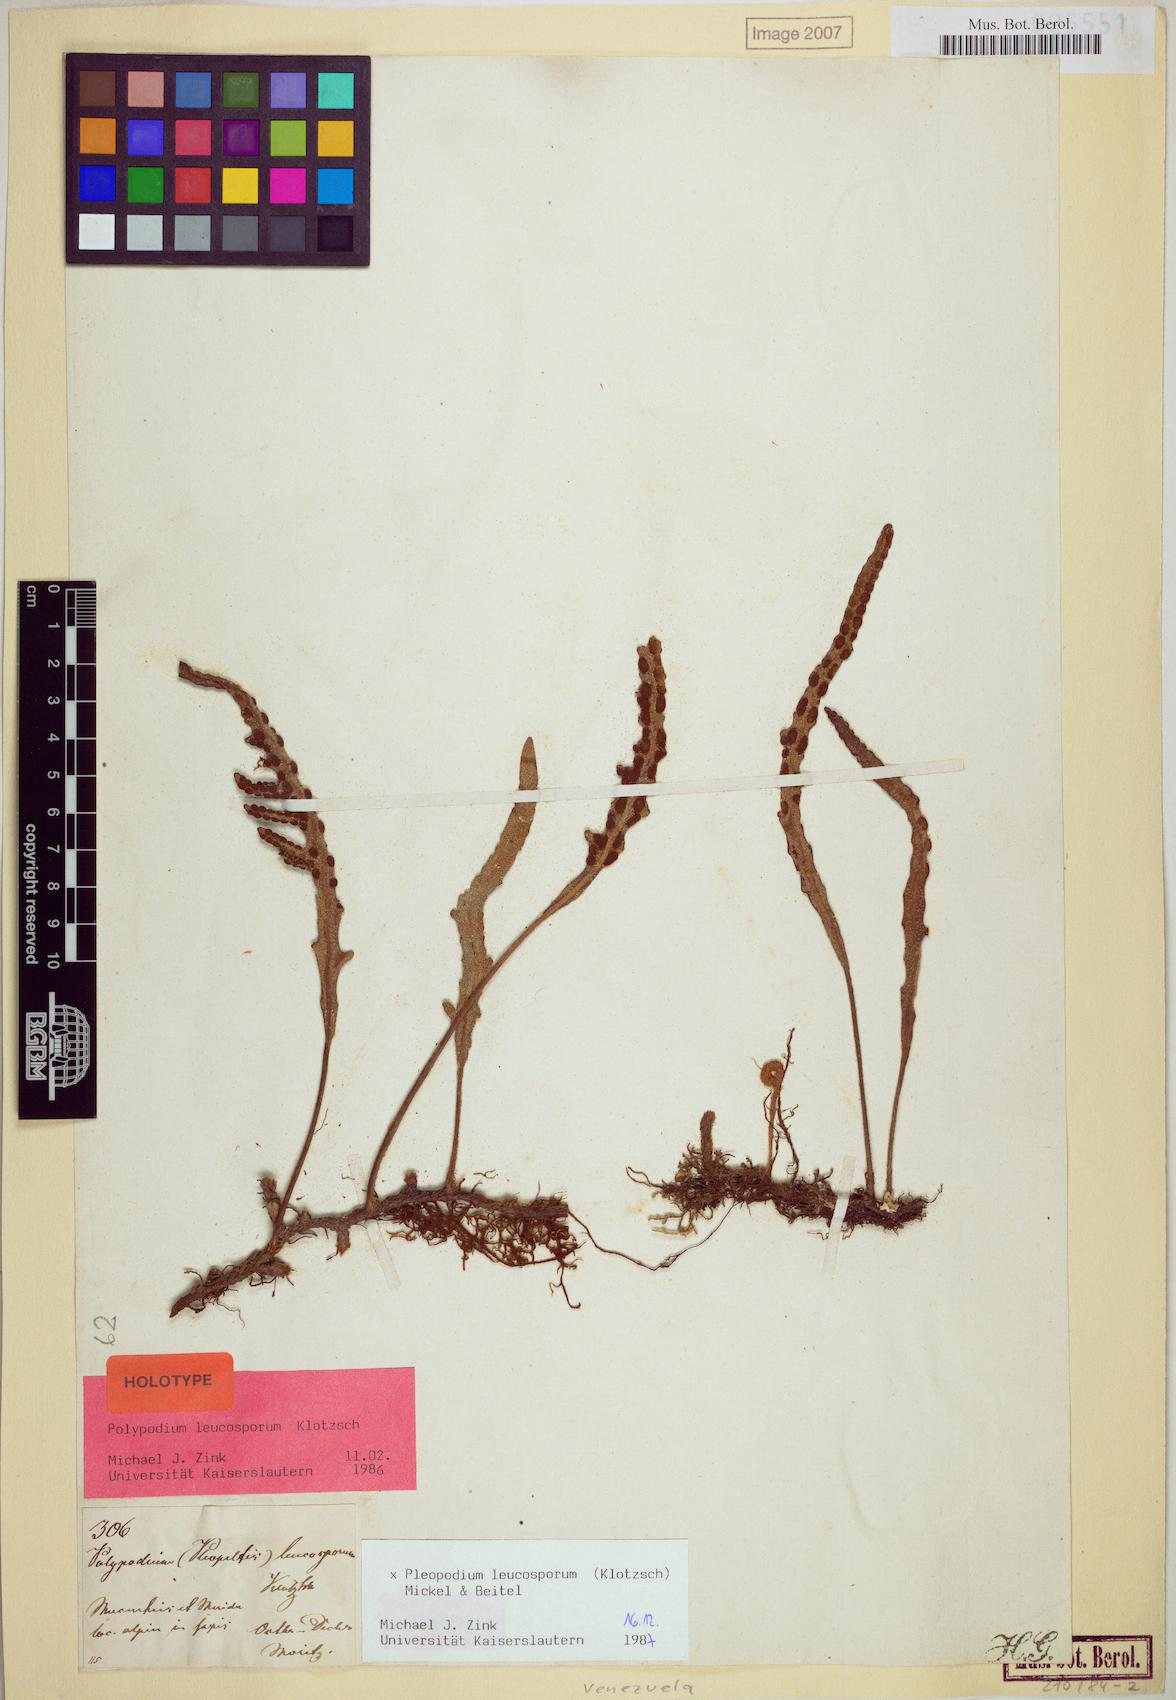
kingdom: Plantae
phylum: Tracheophyta
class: Polypodiopsida
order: Polypodiales
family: Polypodiaceae
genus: Pleopeltis
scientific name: Pleopeltis leucospora
